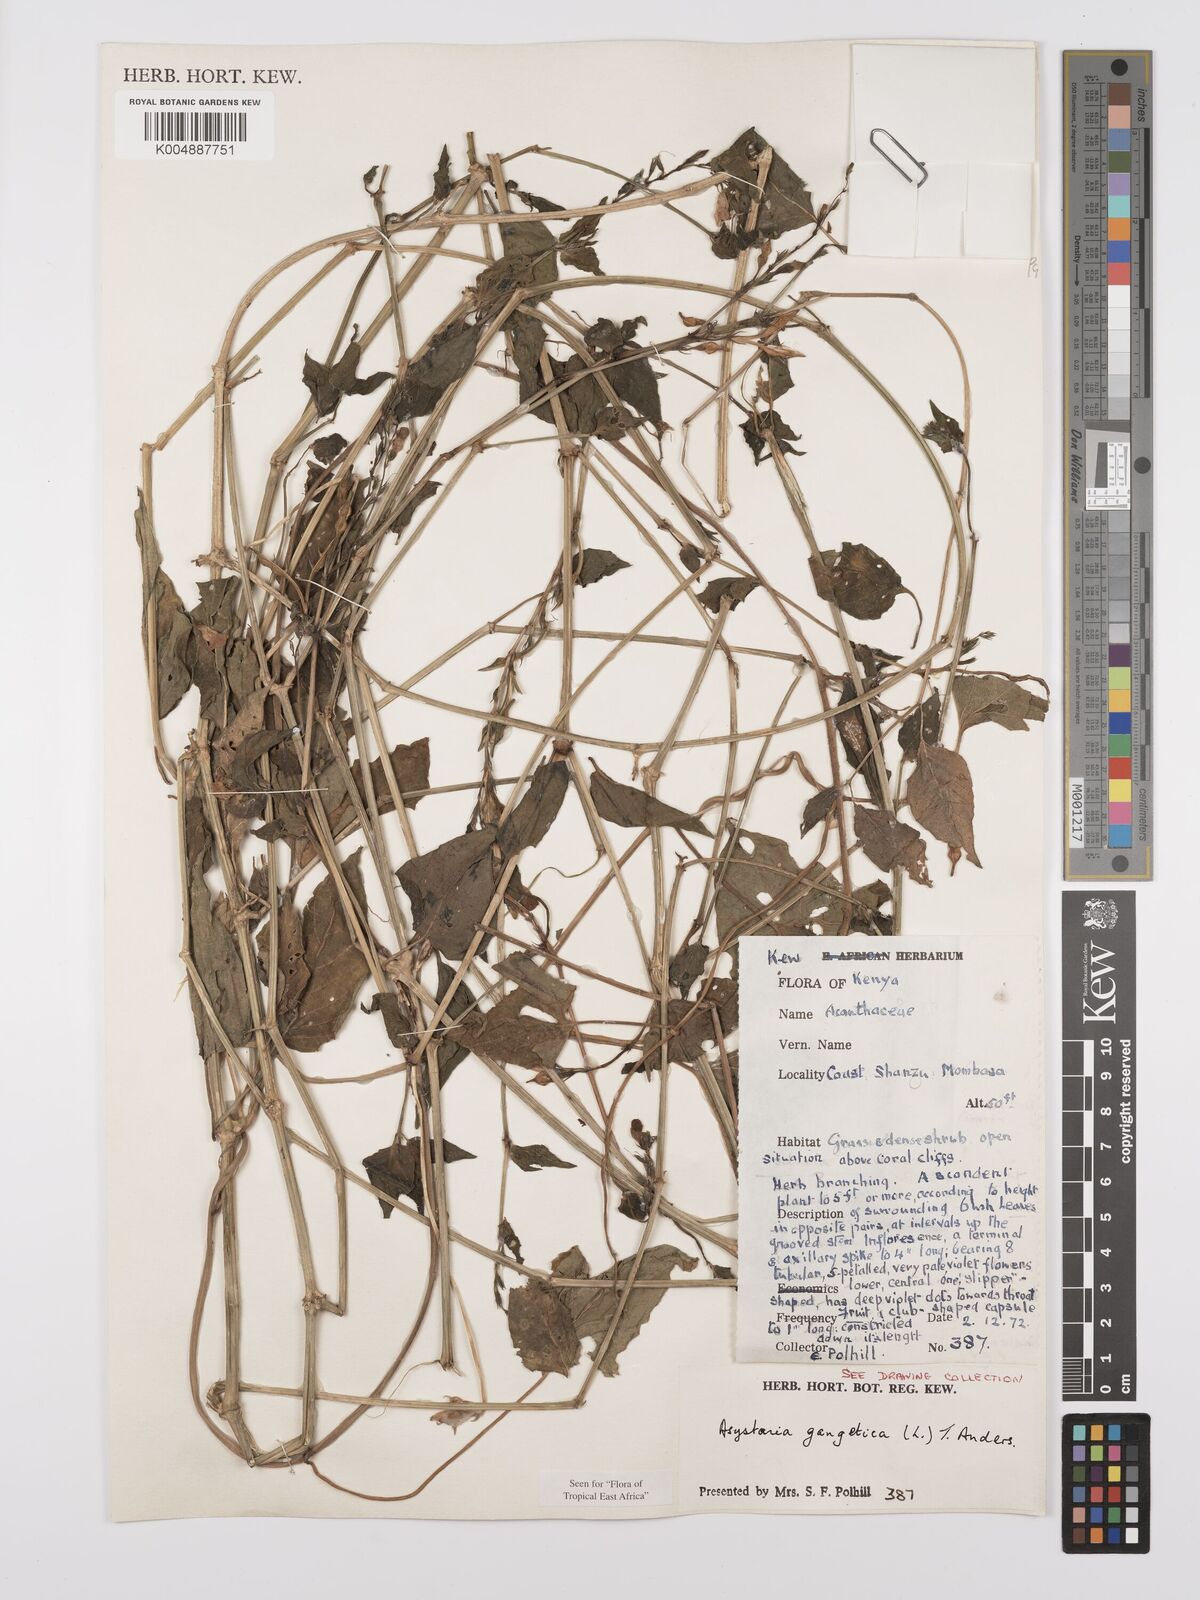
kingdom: Plantae
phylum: Tracheophyta
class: Magnoliopsida
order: Lamiales
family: Acanthaceae
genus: Asystasia
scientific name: Asystasia gangetica
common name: Chinese violet
